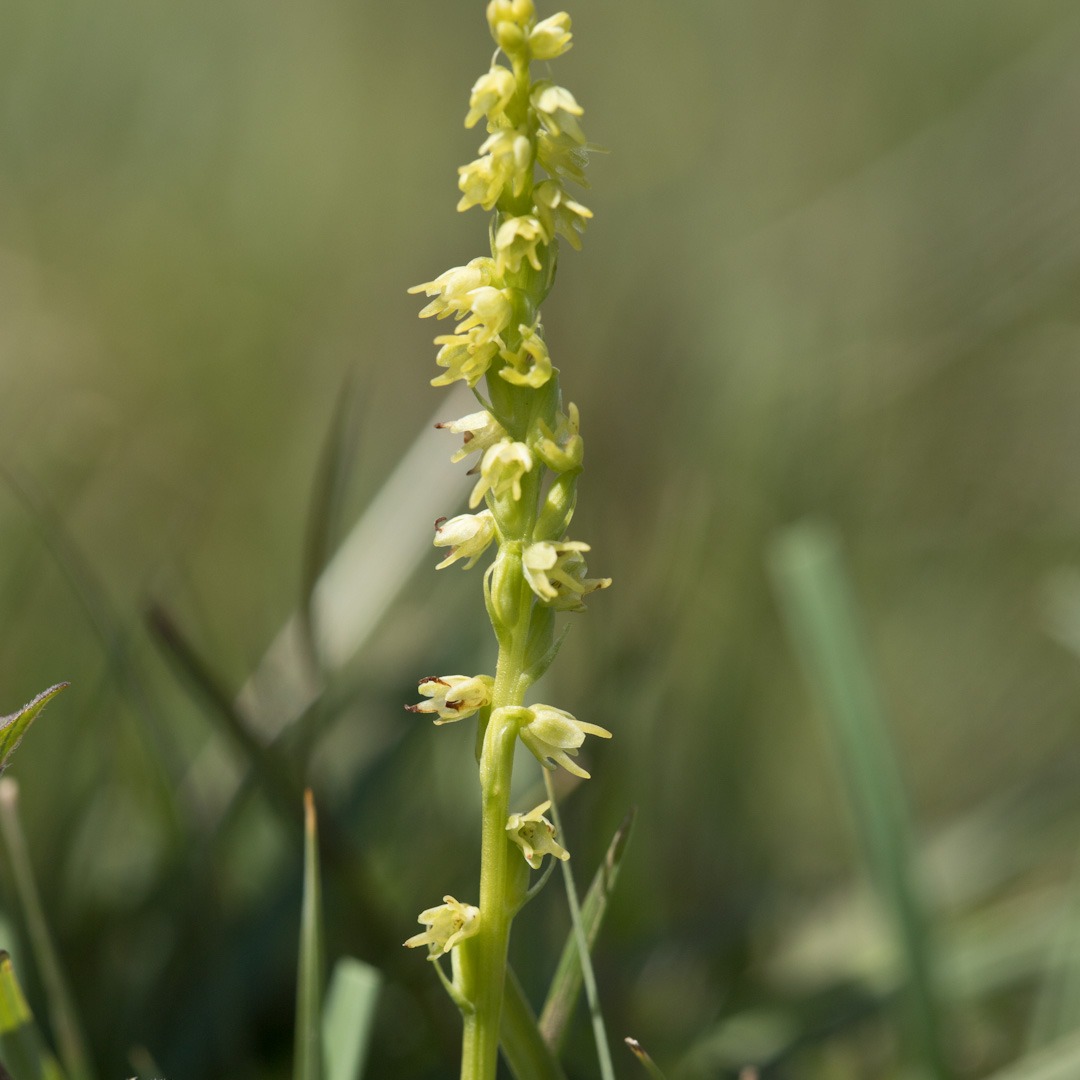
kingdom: Plantae
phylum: Tracheophyta
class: Liliopsida
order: Asparagales
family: Orchidaceae
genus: Herminium
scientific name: Herminium monorchis
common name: Pukkellæbe
